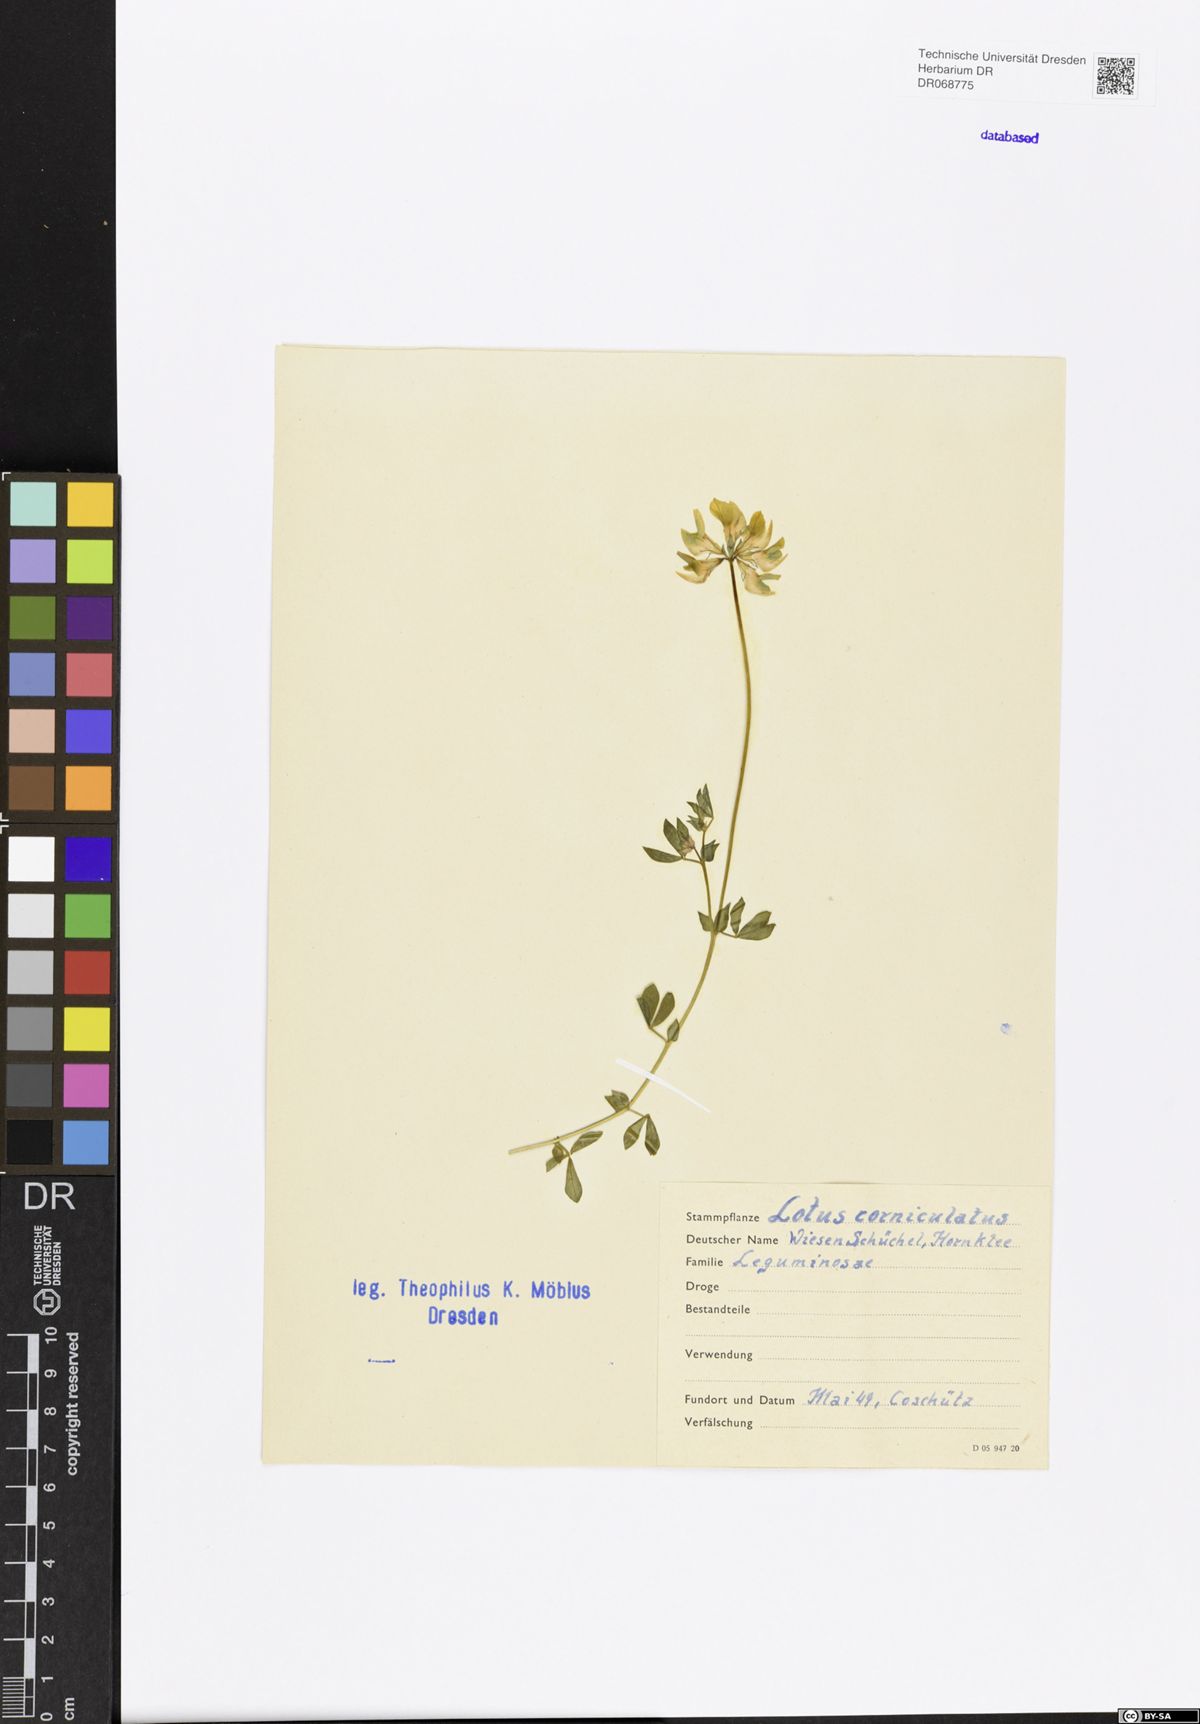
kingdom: Plantae
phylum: Tracheophyta
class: Magnoliopsida
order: Fabales
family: Fabaceae
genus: Lotus
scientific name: Lotus corniculatus
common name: Common bird's-foot-trefoil
